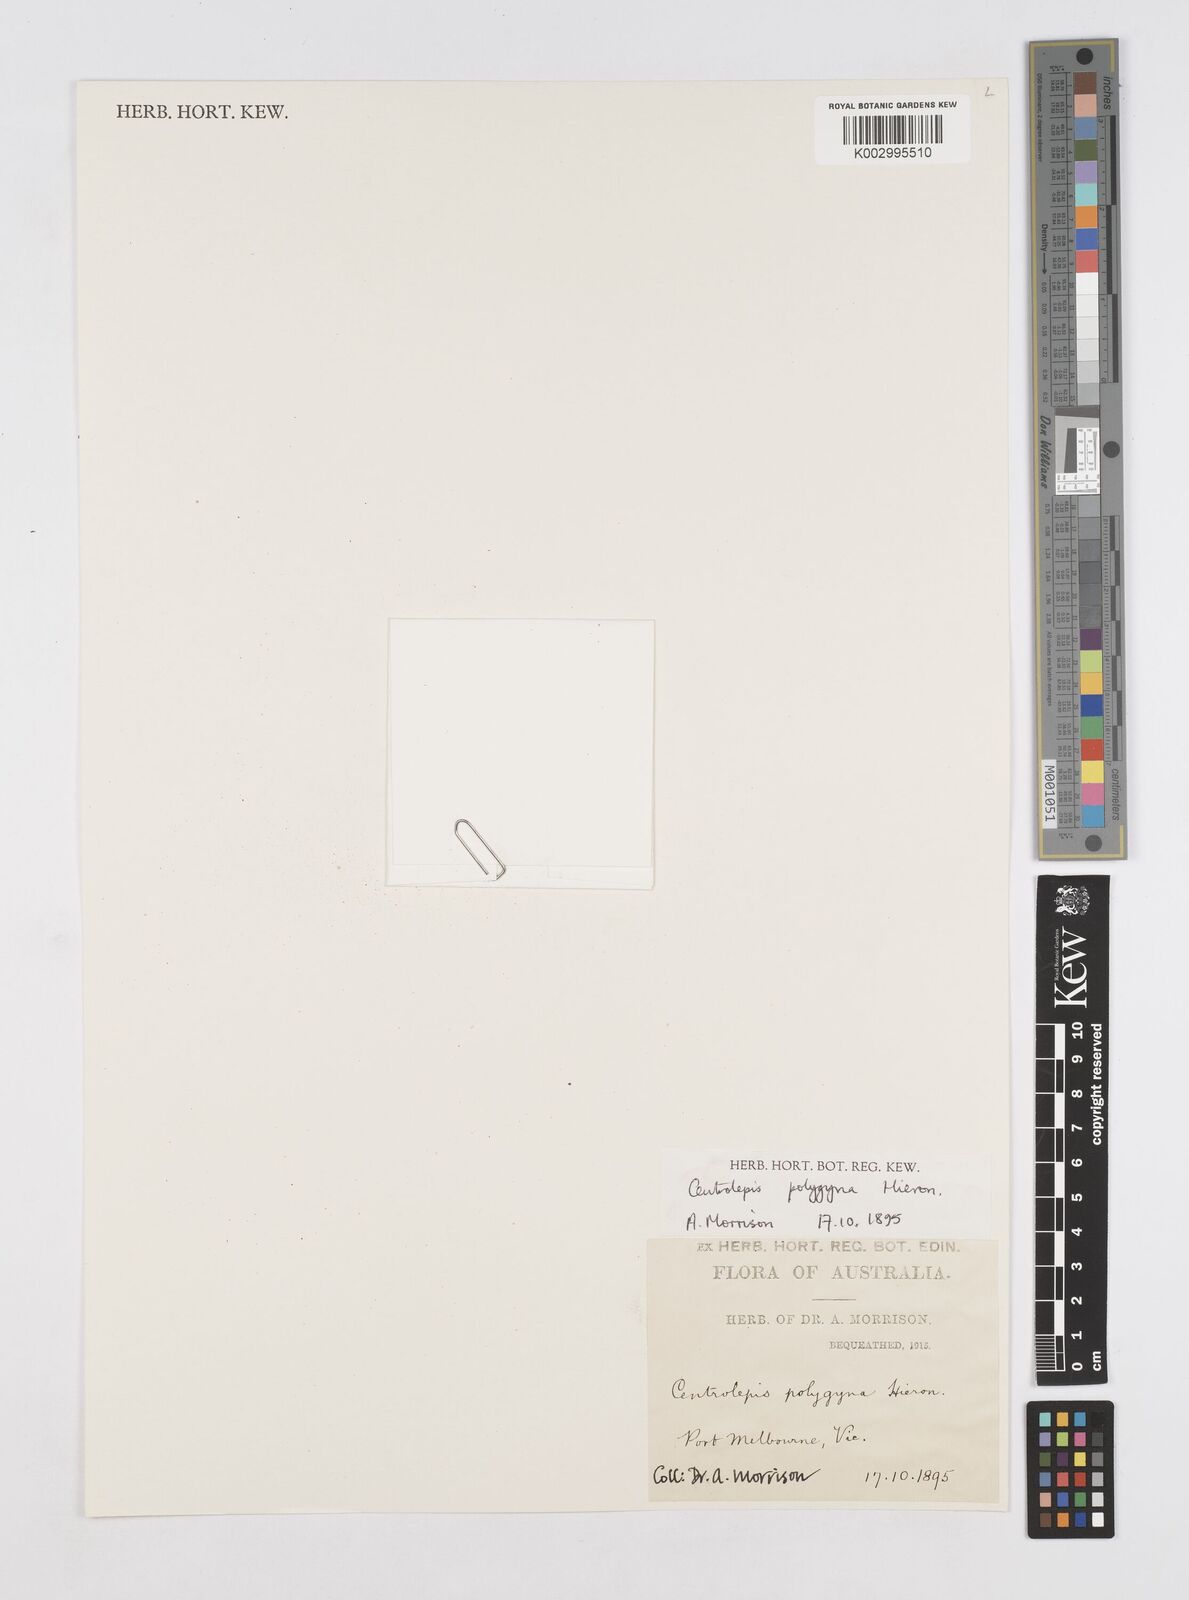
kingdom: Plantae
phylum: Tracheophyta
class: Liliopsida
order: Poales
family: Restionaceae
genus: Centrolepis
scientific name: Centrolepis polygyna
